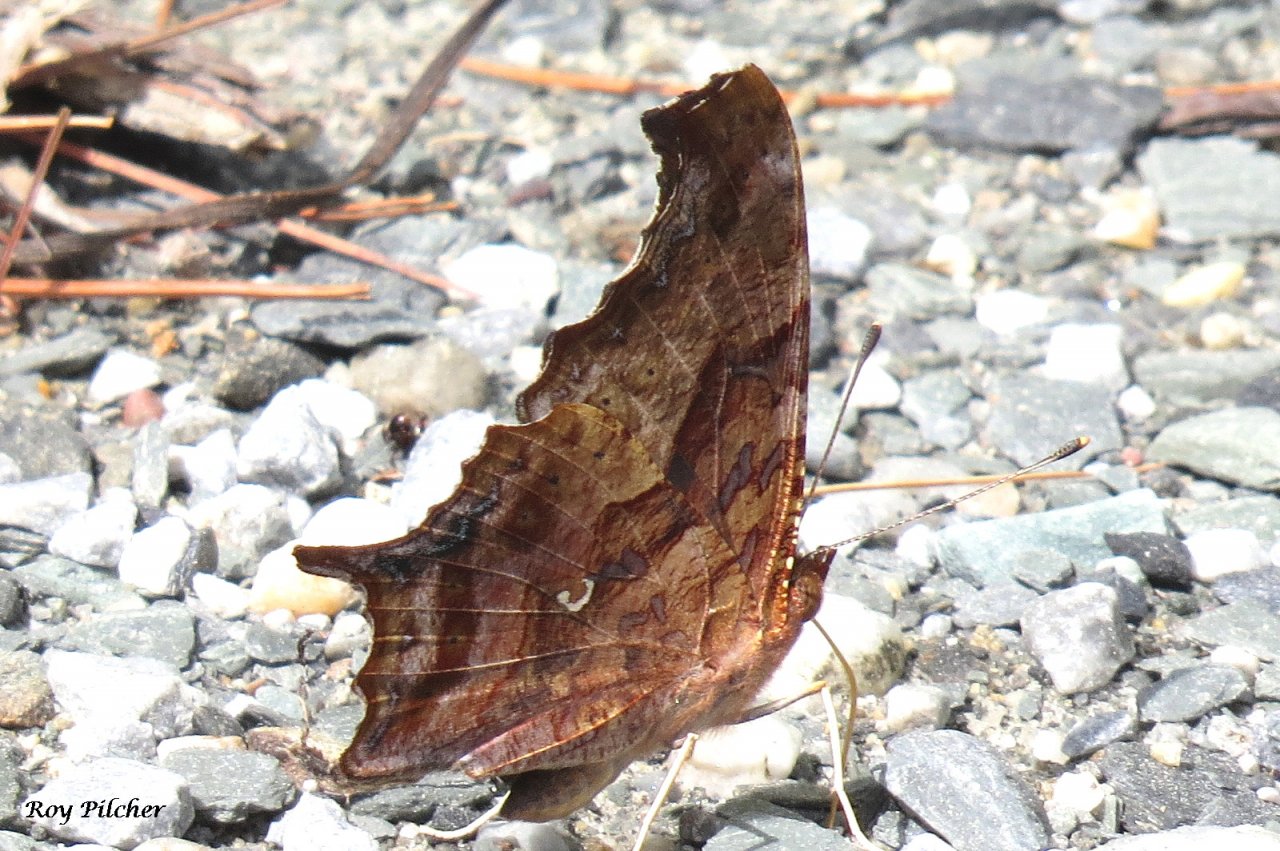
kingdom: Animalia
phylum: Arthropoda
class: Insecta
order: Lepidoptera
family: Nymphalidae
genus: Polygonia
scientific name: Polygonia interrogationis
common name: Question Mark
